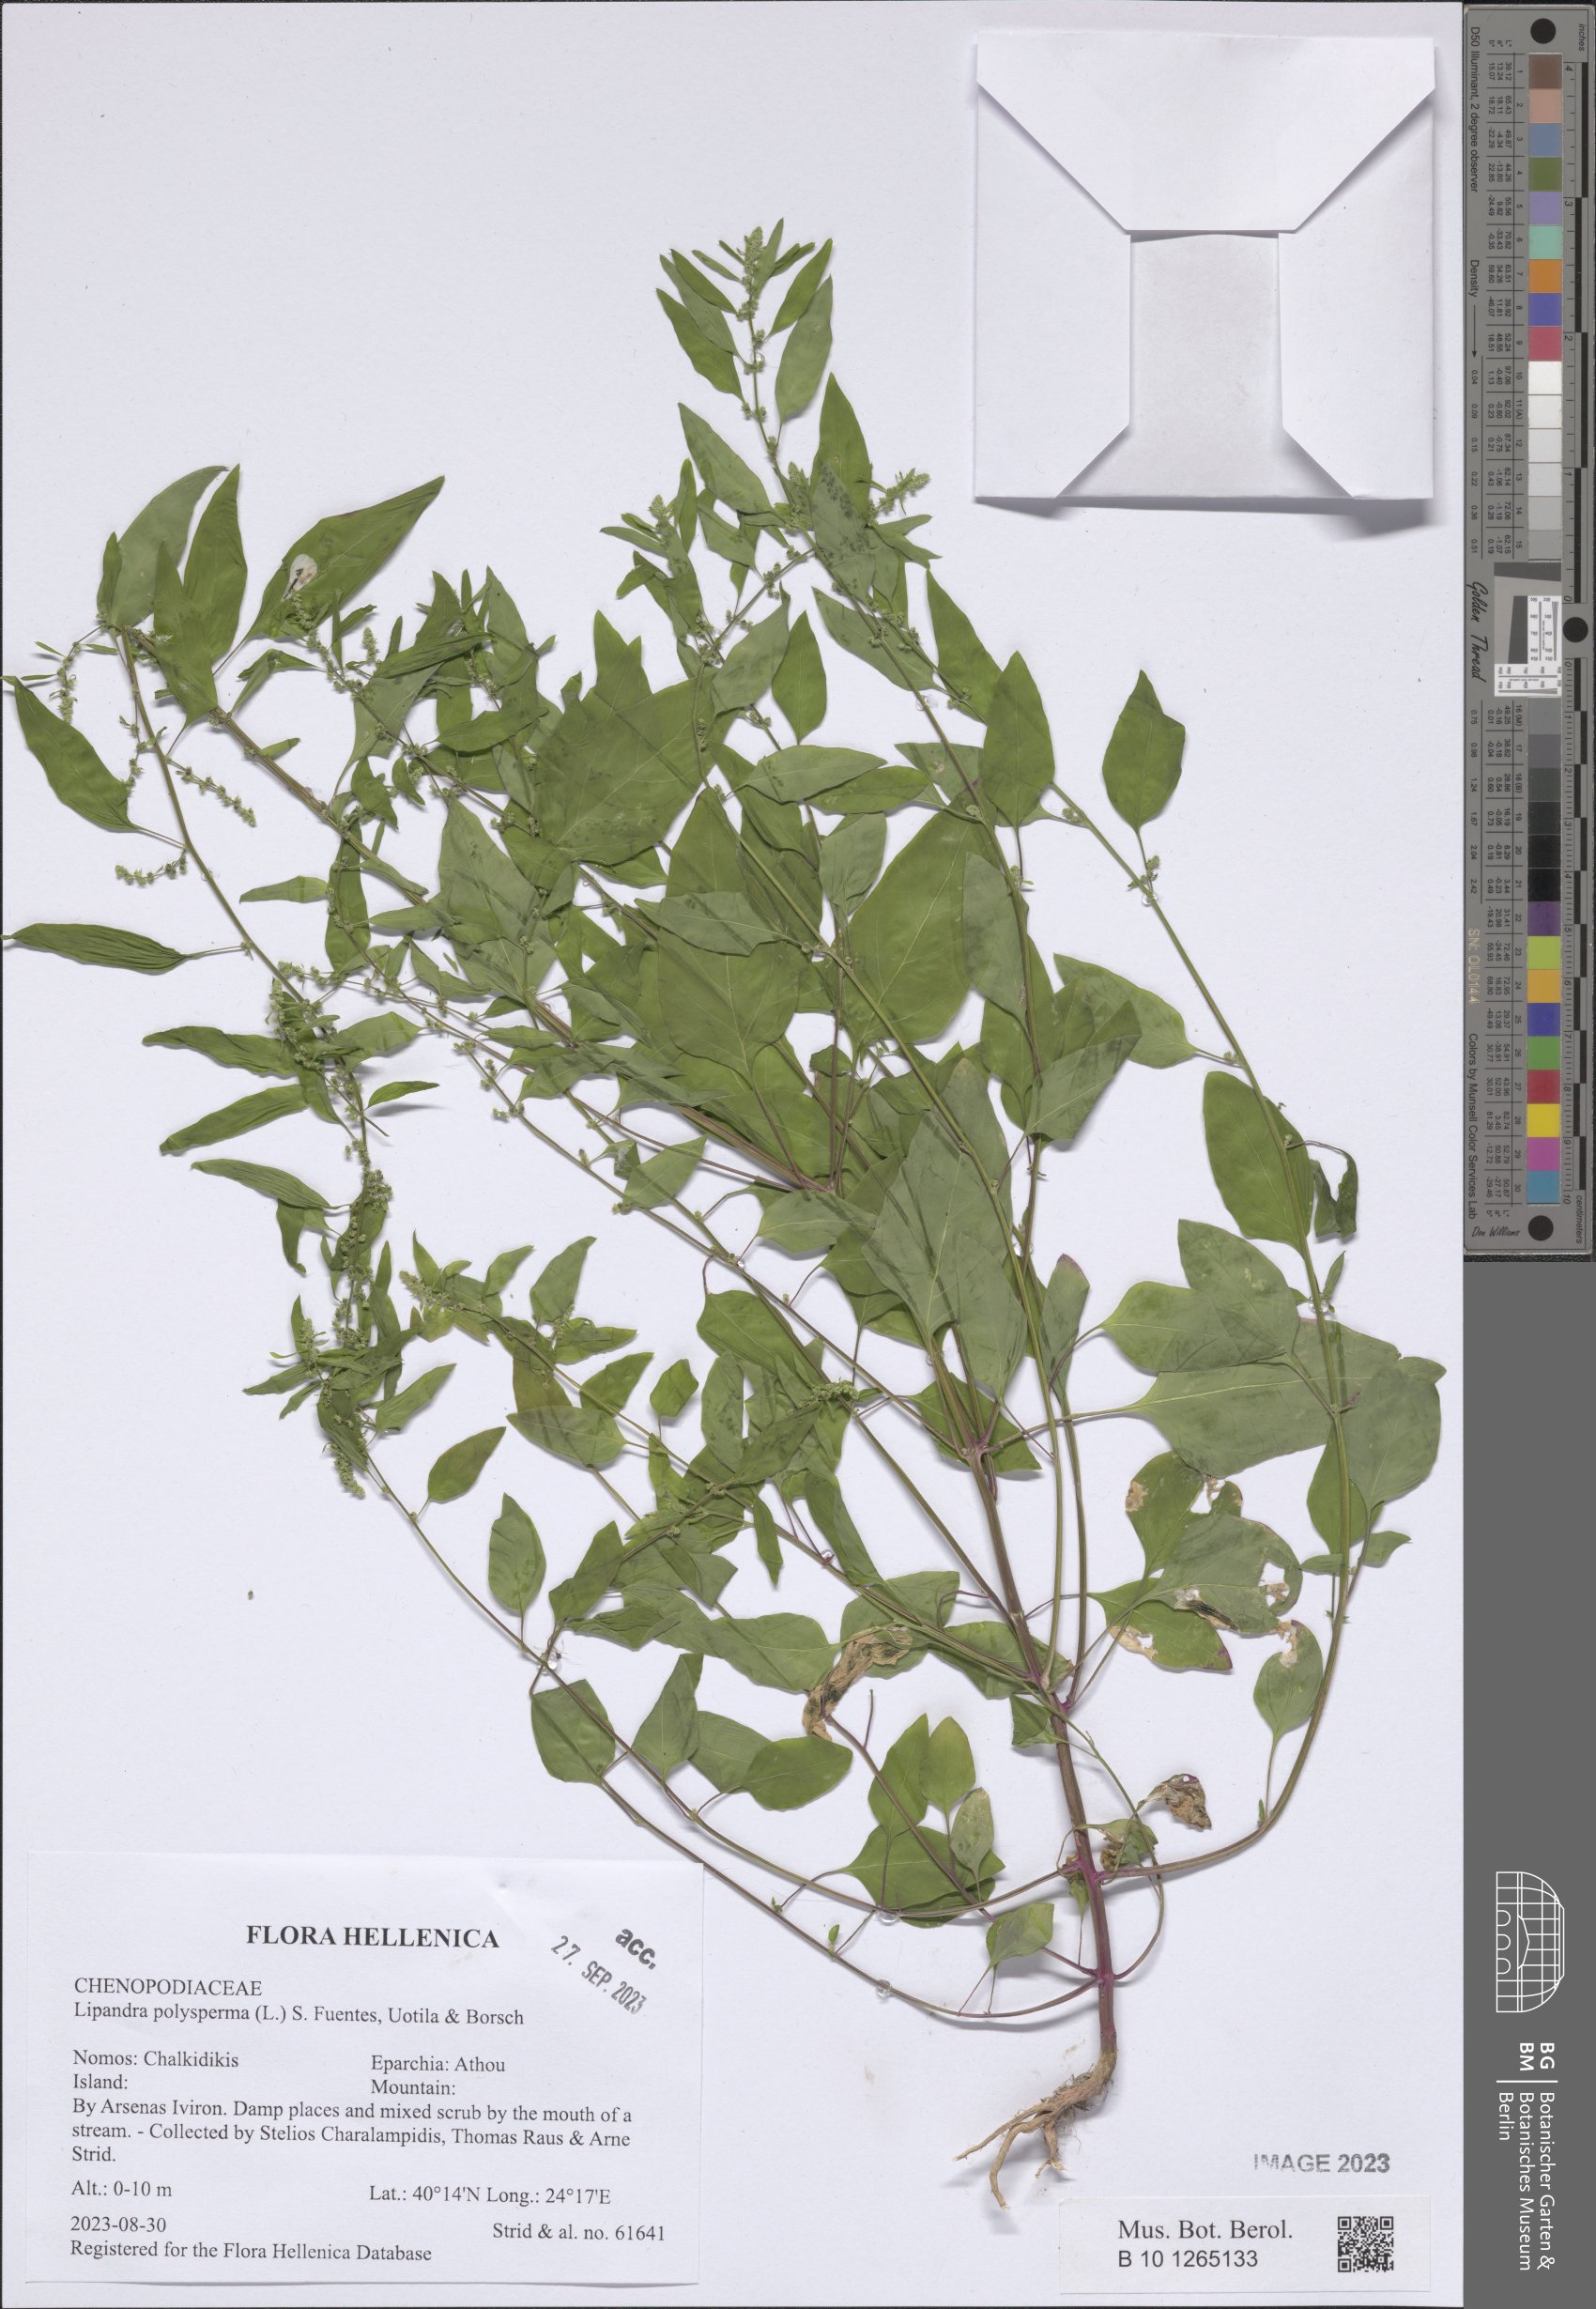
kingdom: Plantae
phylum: Tracheophyta
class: Magnoliopsida
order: Caryophyllales
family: Amaranthaceae
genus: Lipandra
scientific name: Lipandra polysperma
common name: Many-seed goosefoot
